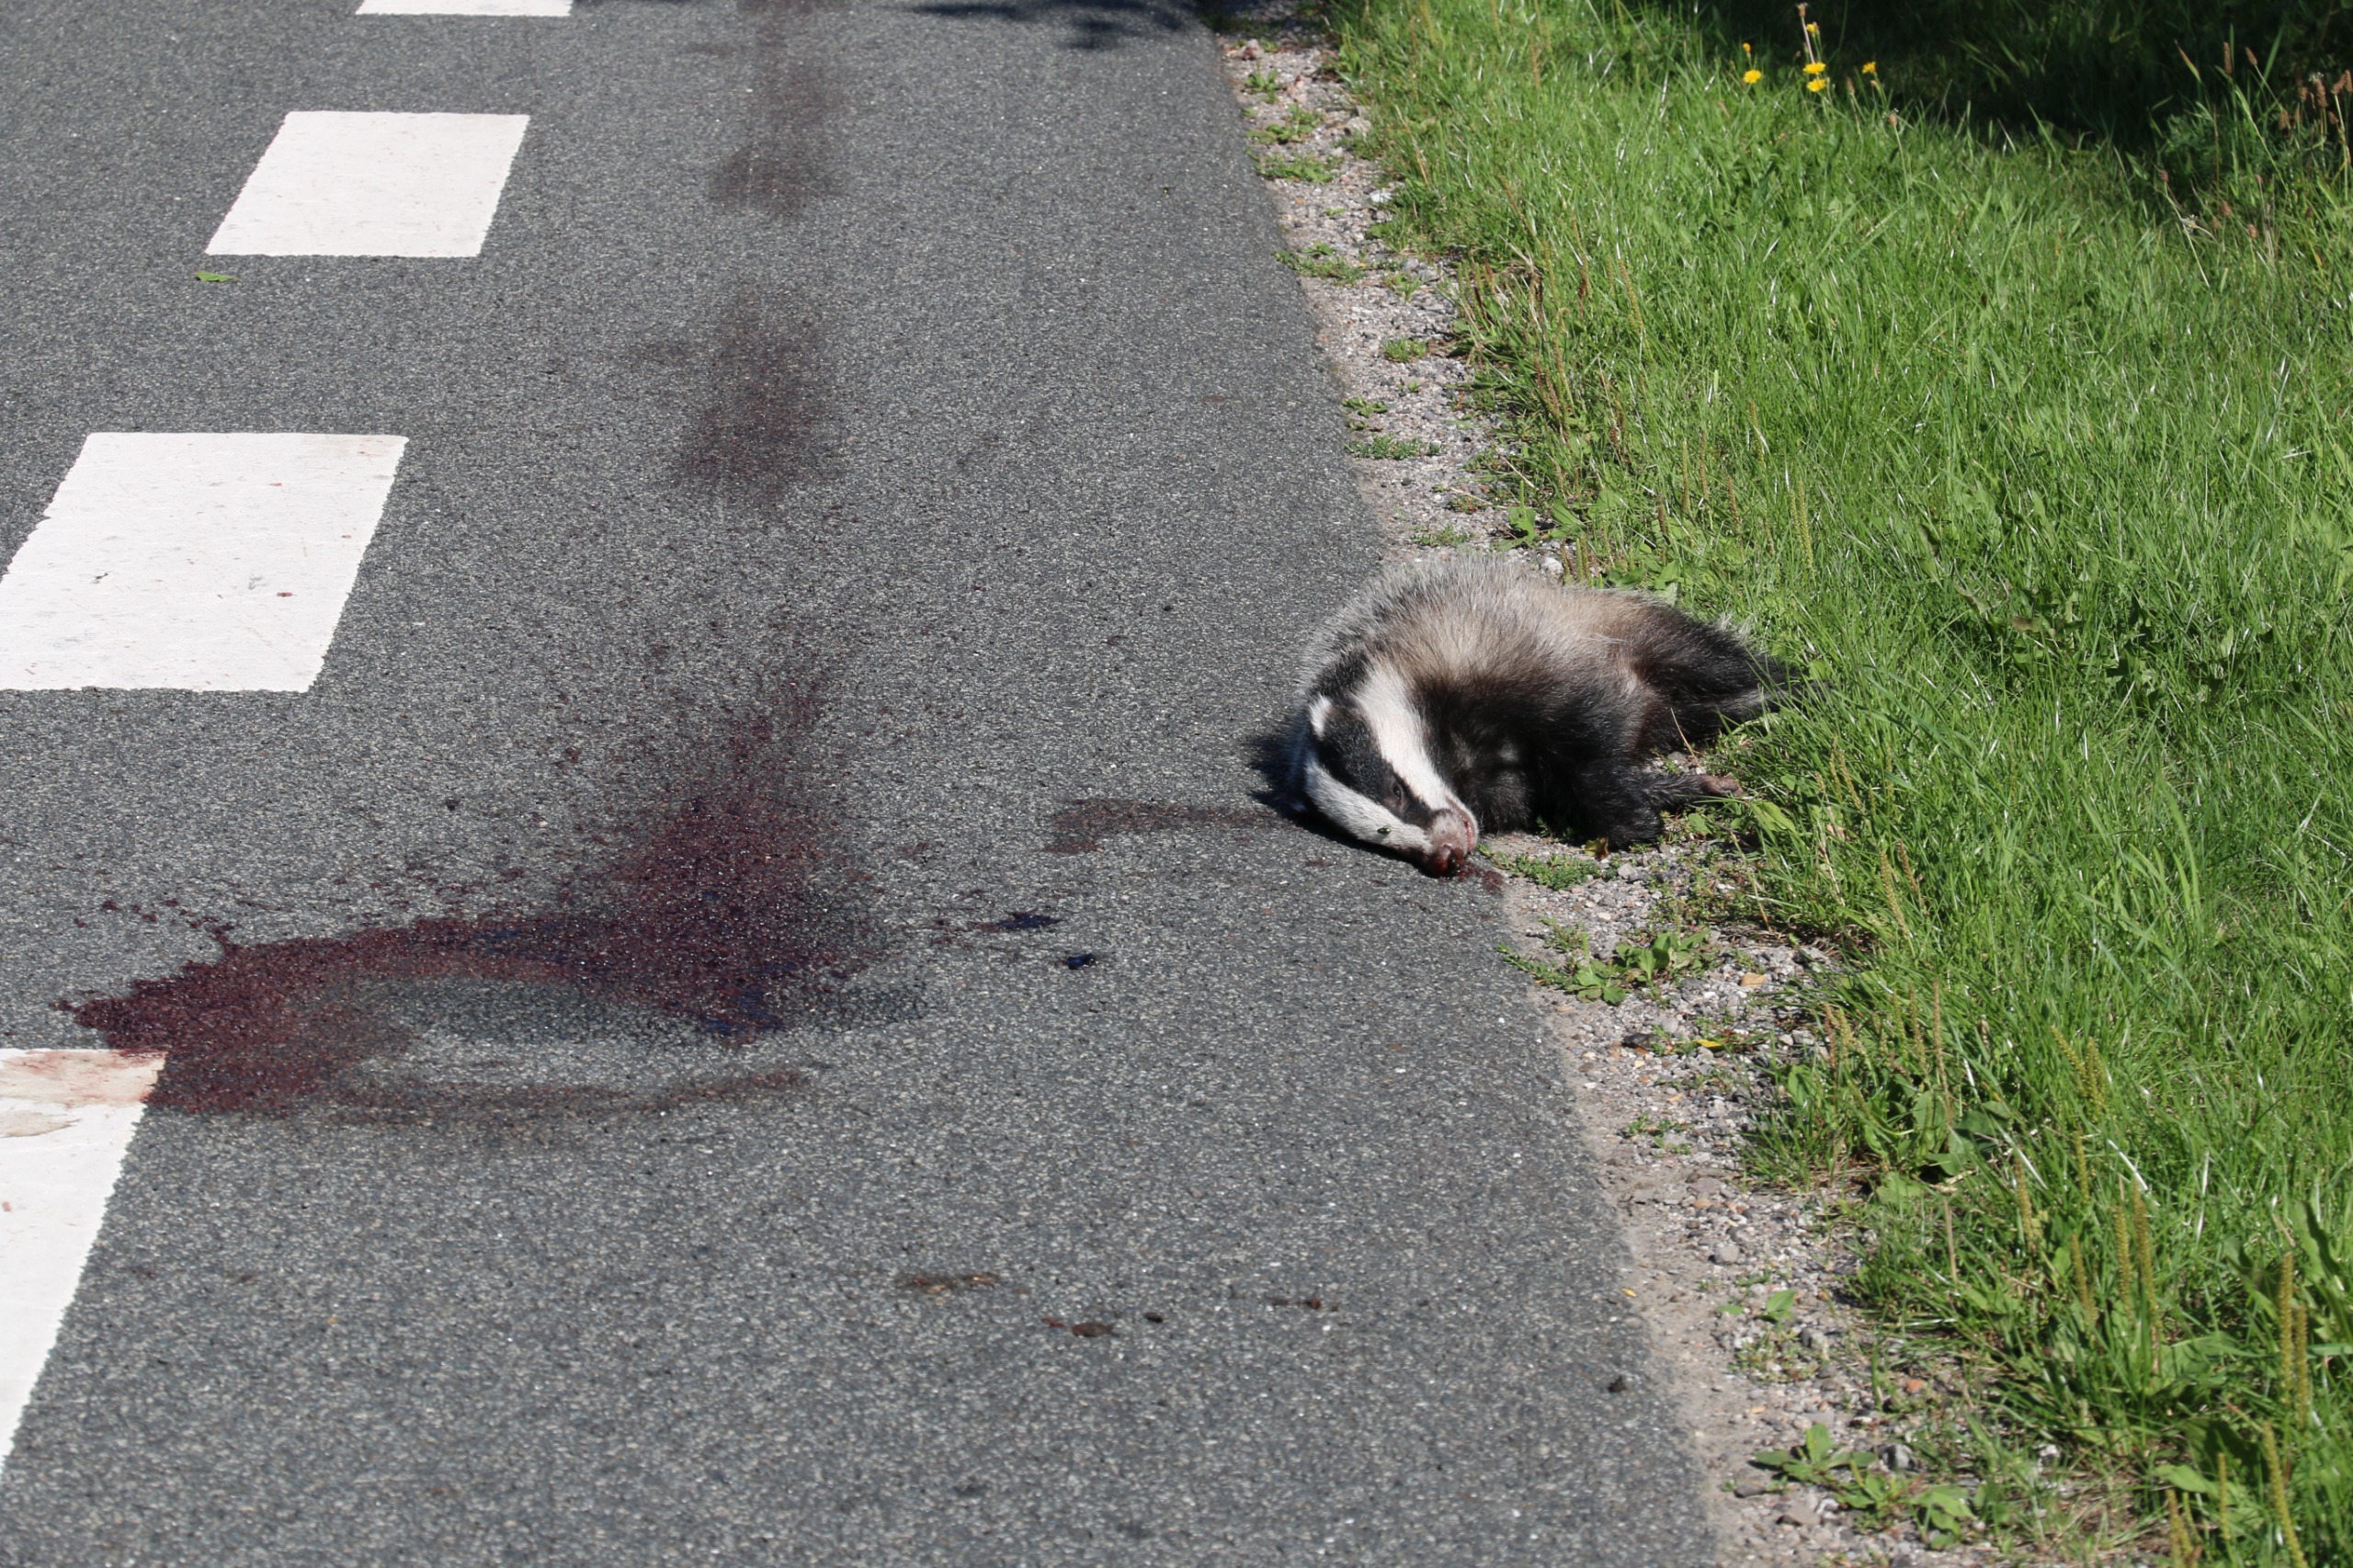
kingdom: Animalia
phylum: Chordata
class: Mammalia
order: Carnivora
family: Mustelidae
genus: Meles
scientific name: Meles meles
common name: Grævling
